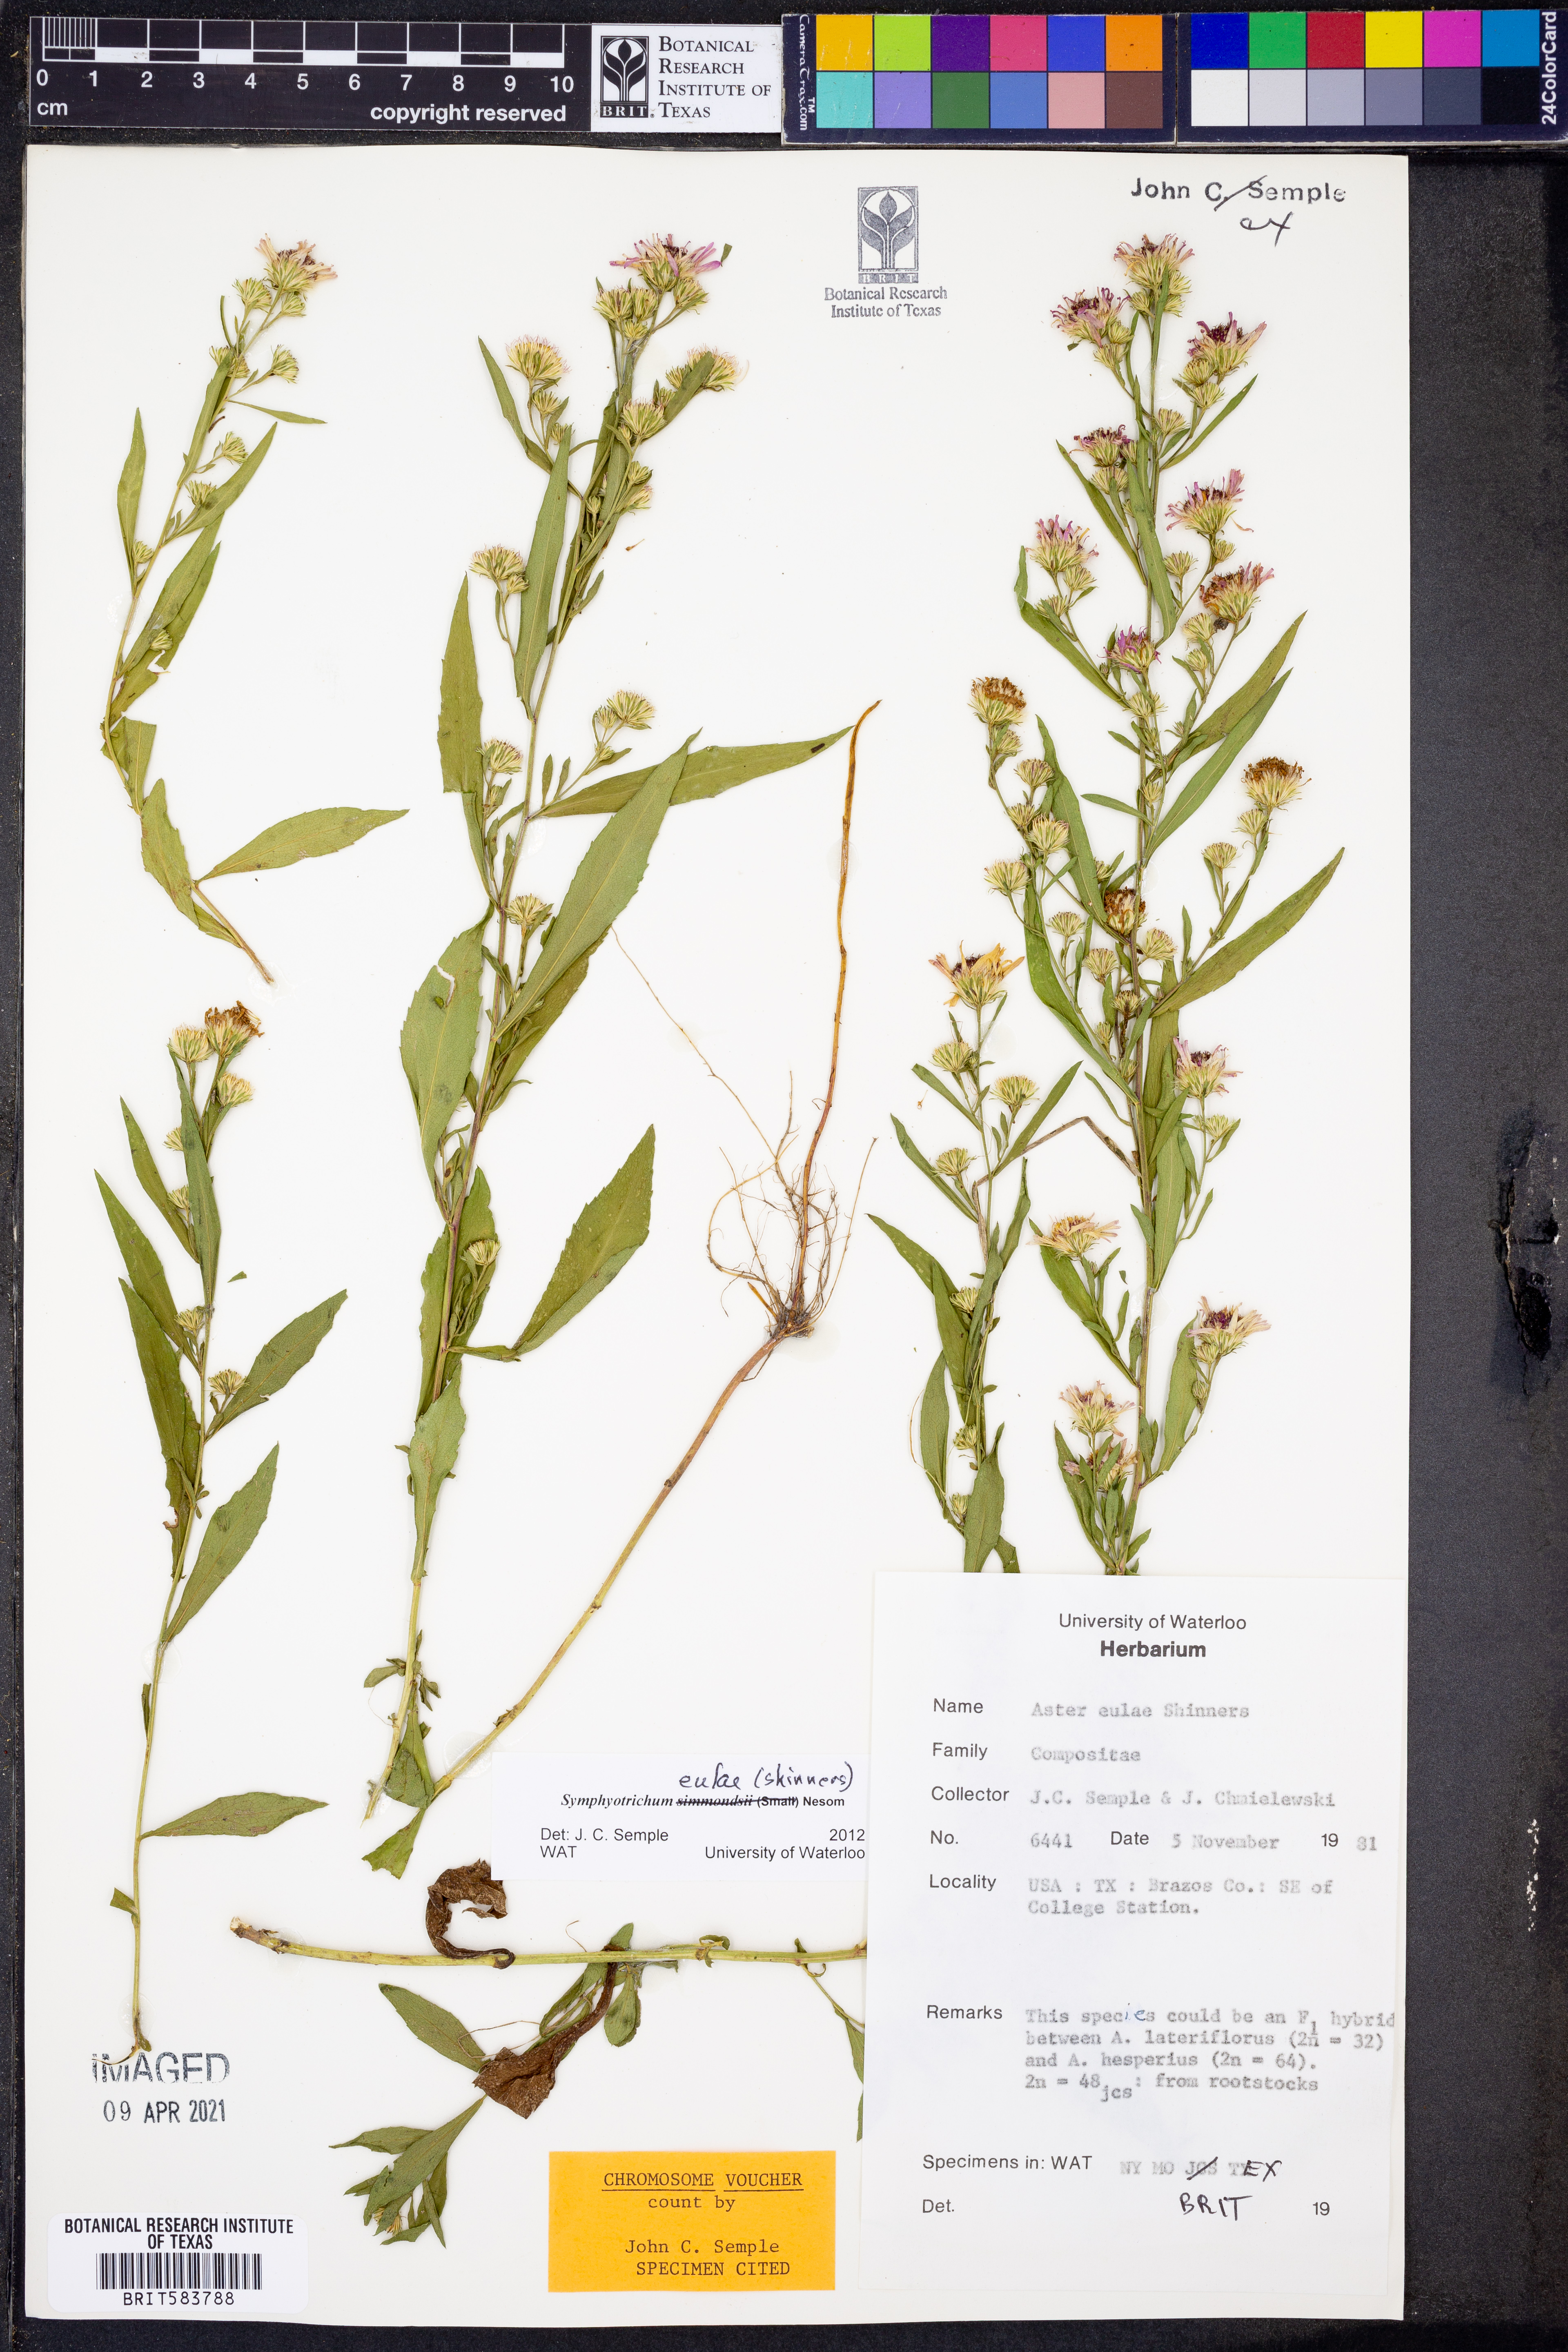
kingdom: Plantae
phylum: Tracheophyta
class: Magnoliopsida
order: Asterales
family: Asteraceae
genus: Symphyotrichum
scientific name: Symphyotrichum eulae
